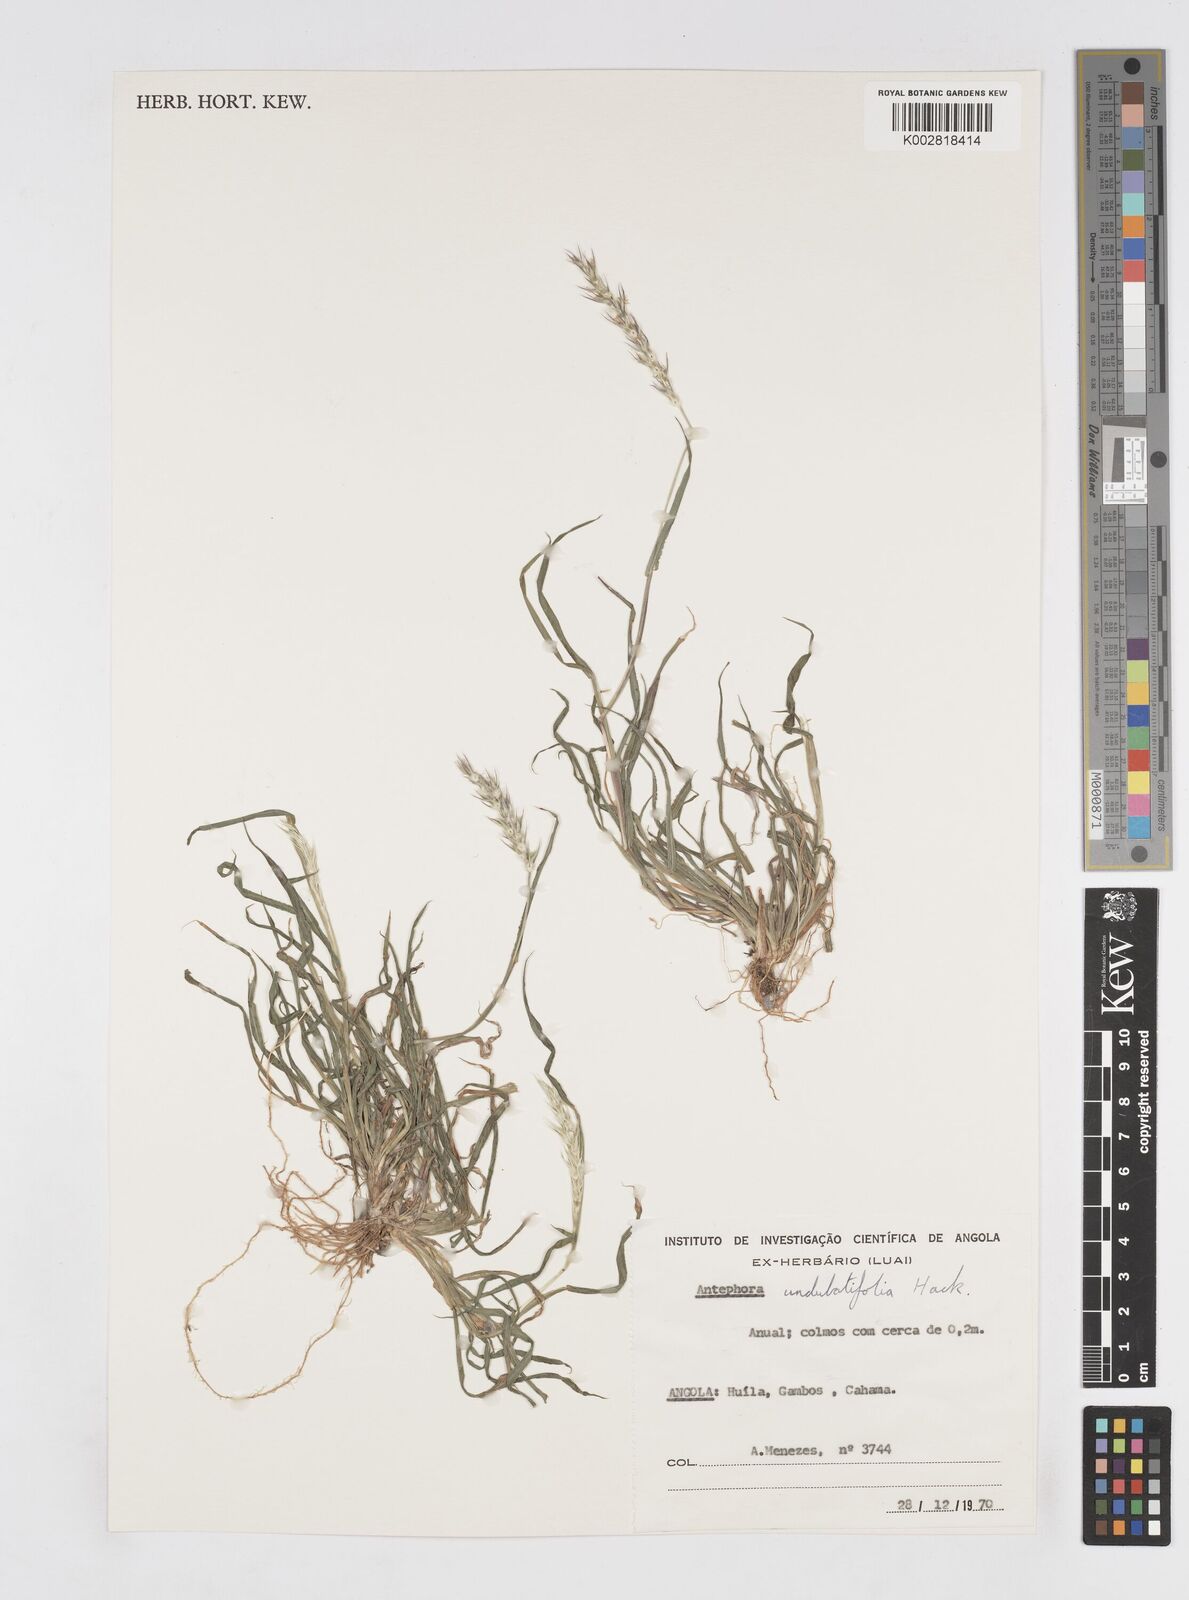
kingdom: Plantae
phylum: Tracheophyta
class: Liliopsida
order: Poales
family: Poaceae
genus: Anthephora
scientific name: Anthephora schinzii
